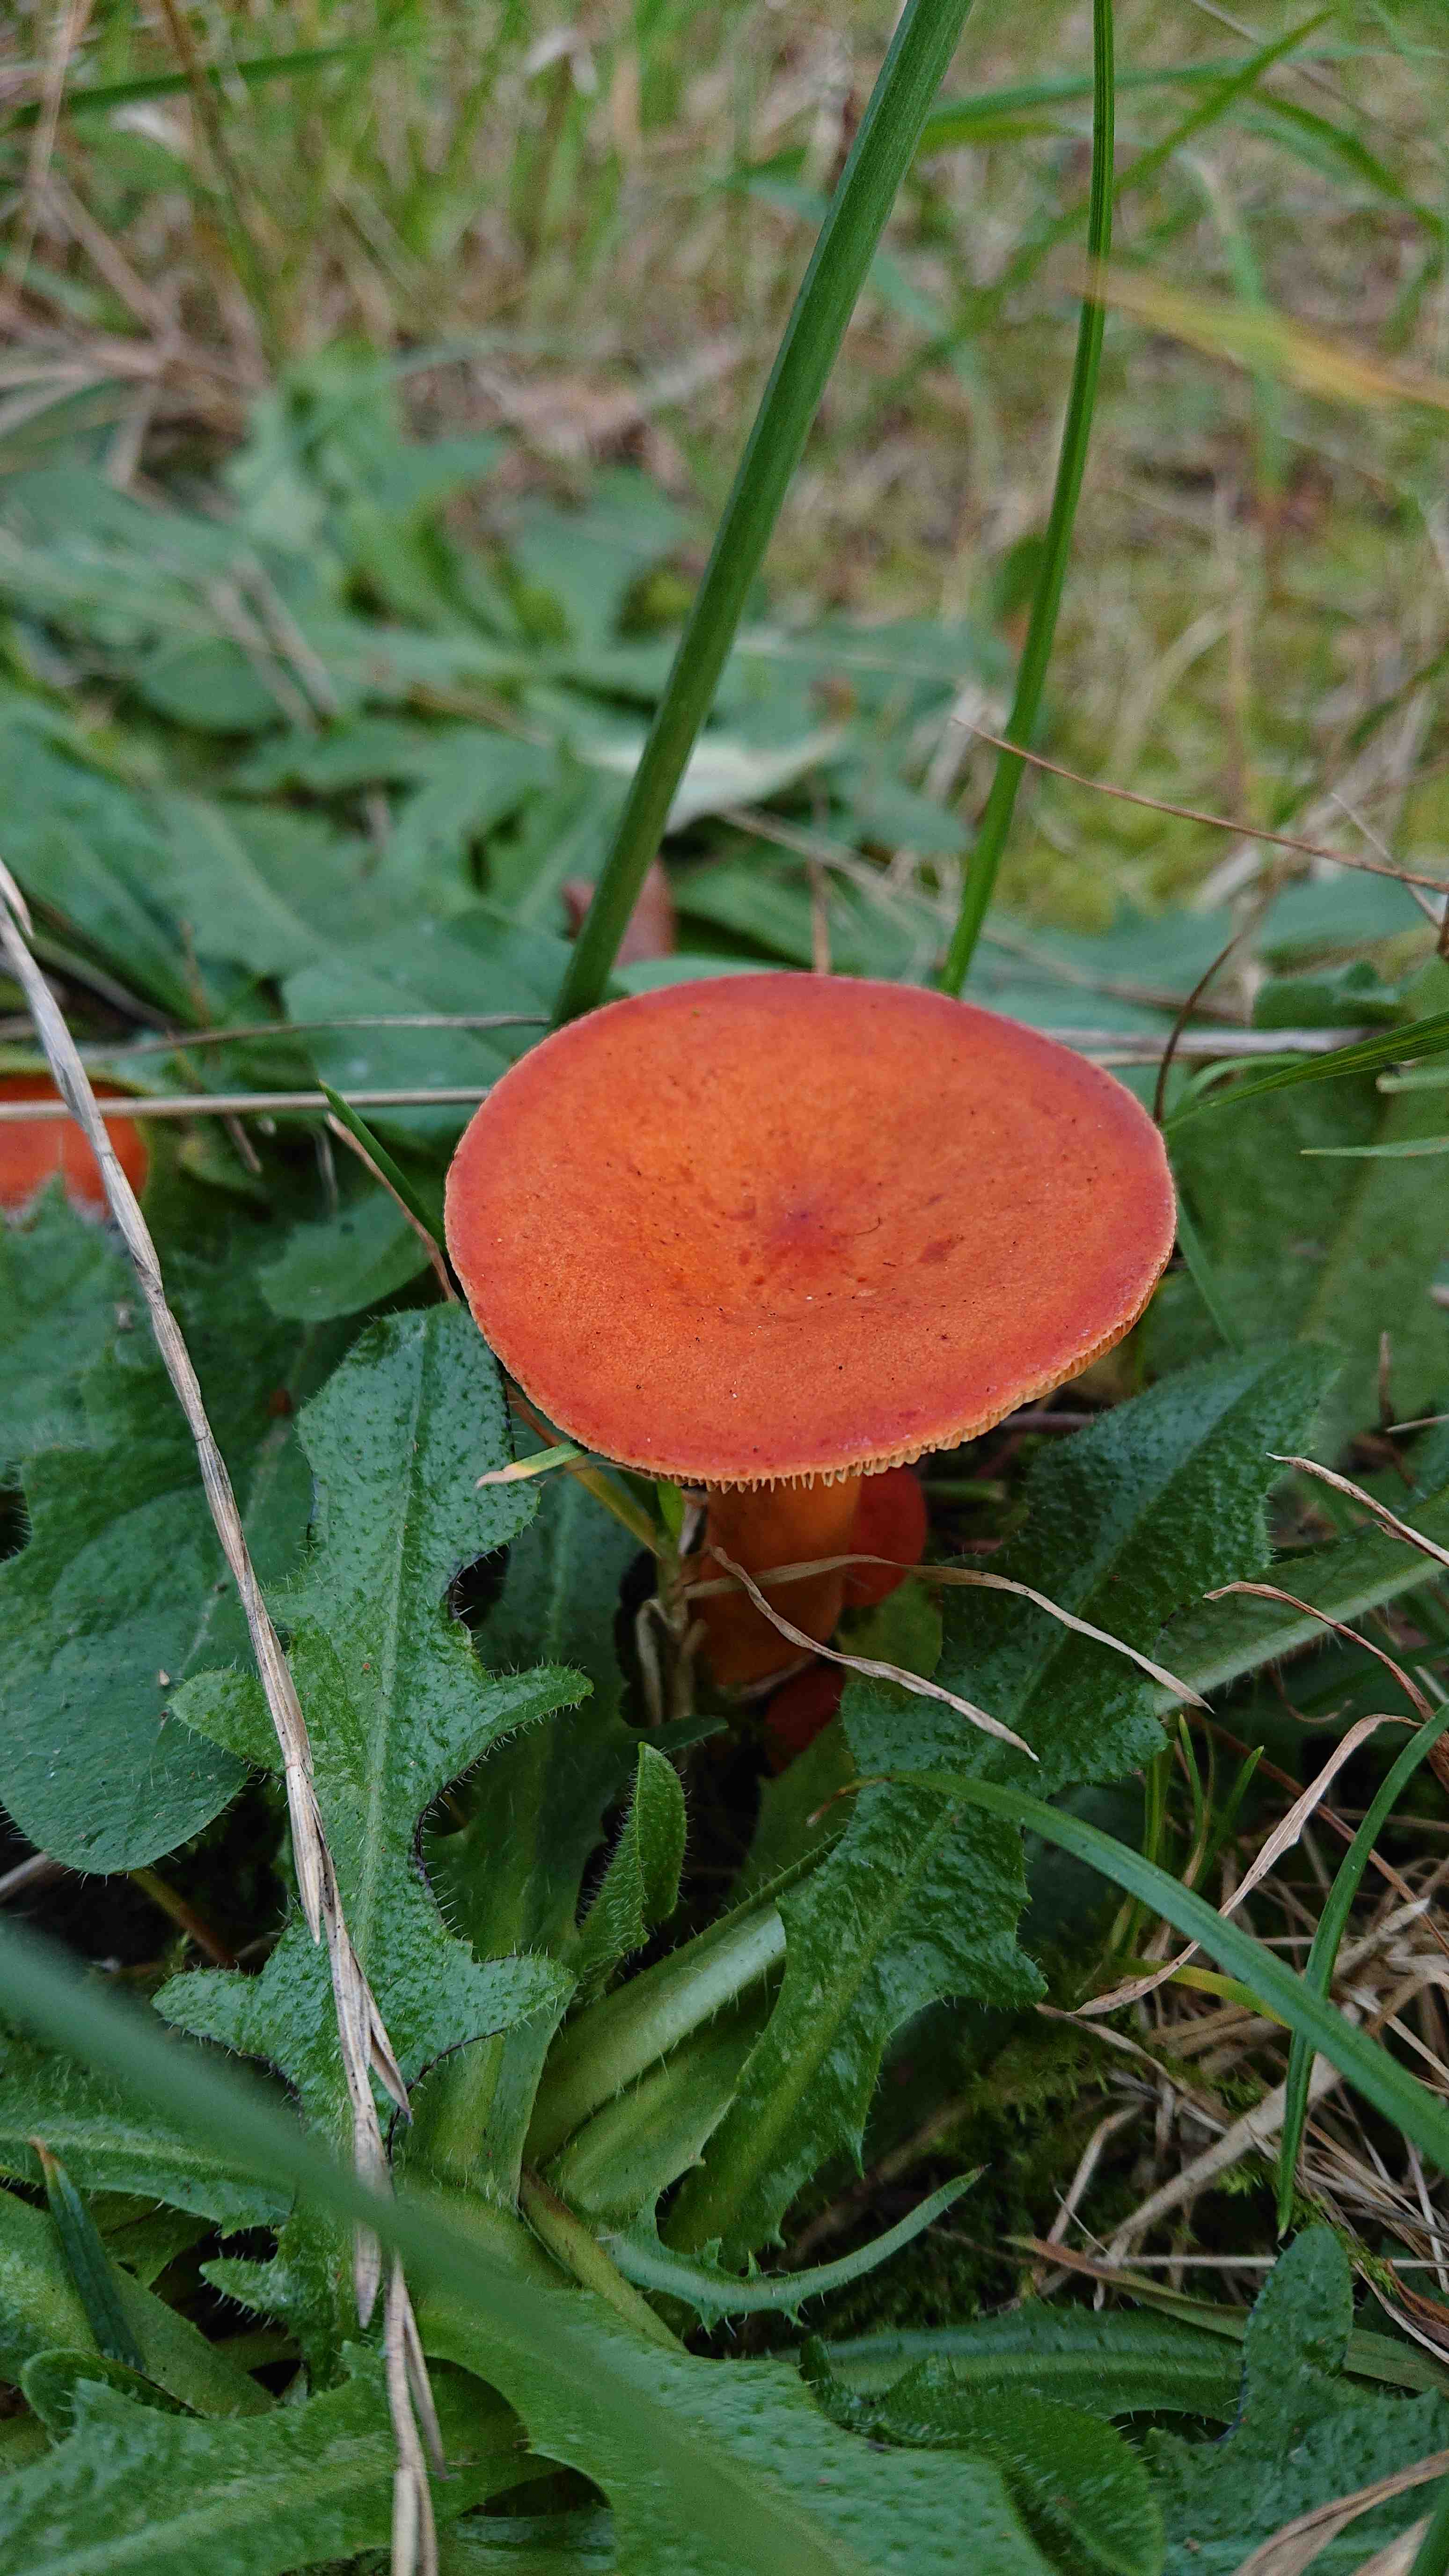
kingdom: Fungi
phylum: Basidiomycota
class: Agaricomycetes
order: Russulales
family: Russulaceae
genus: Lactarius
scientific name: Lactarius aurantiacus
